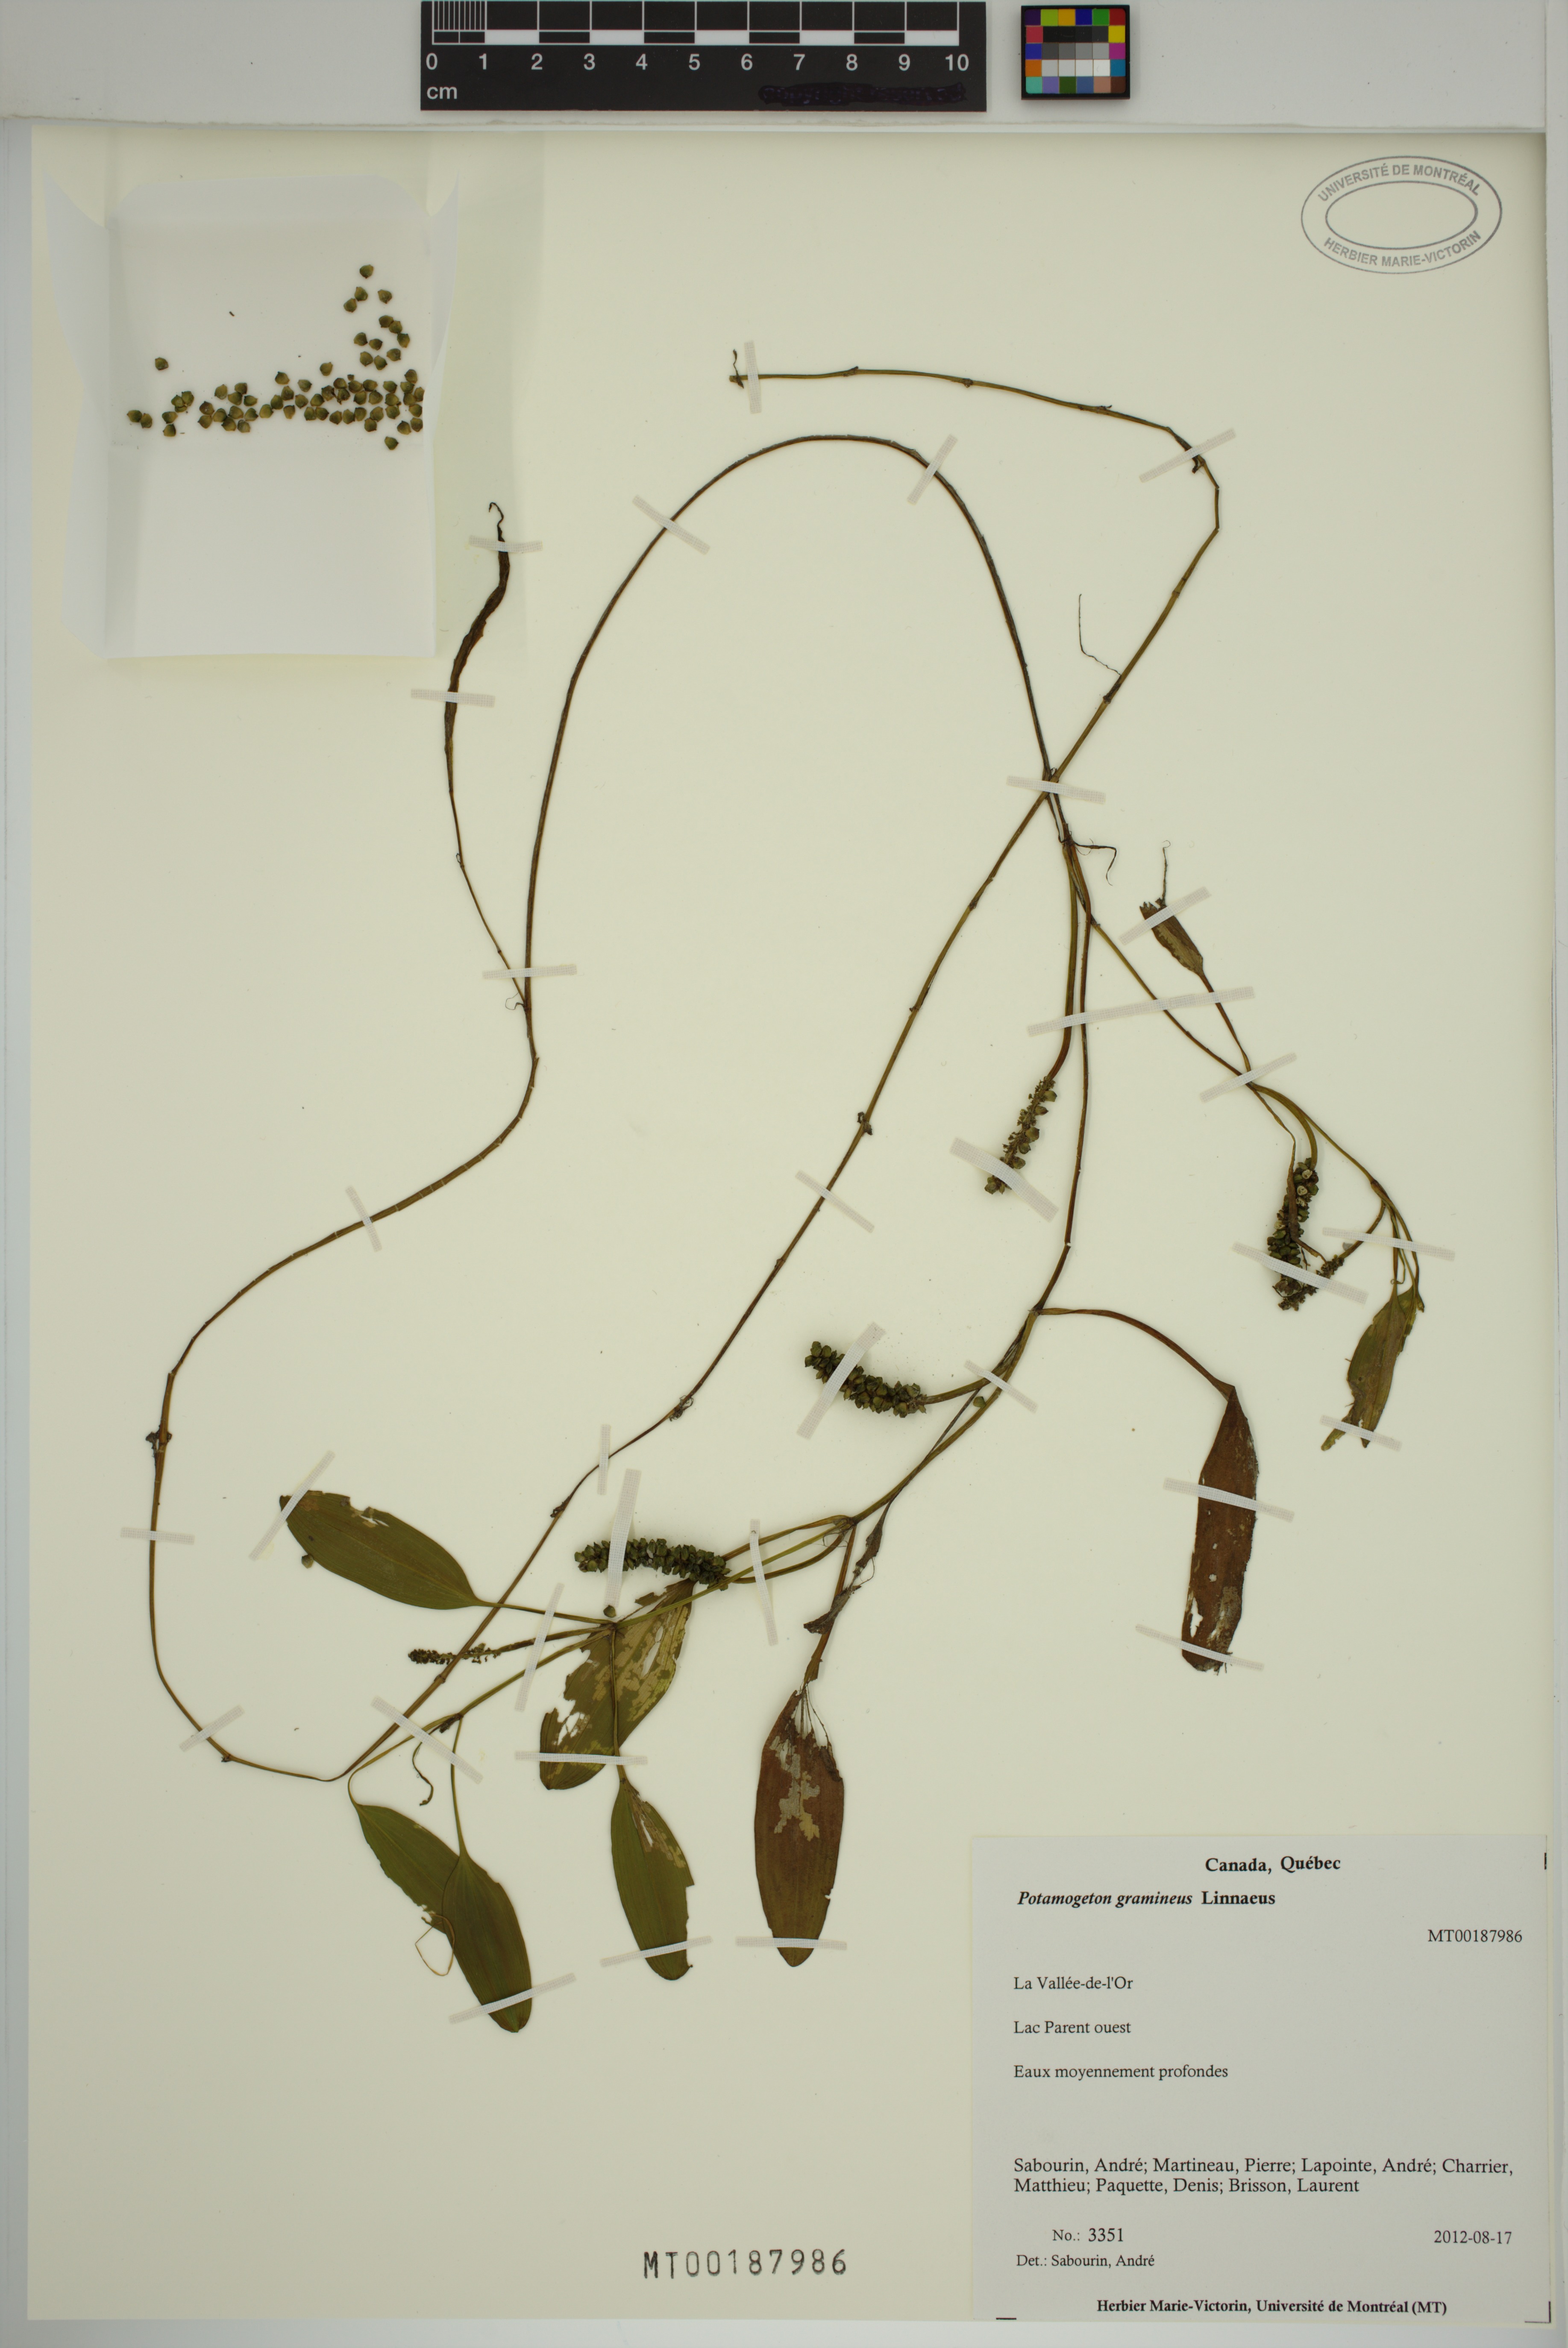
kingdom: Plantae
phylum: Tracheophyta
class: Liliopsida
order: Alismatales
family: Potamogetonaceae
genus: Potamogeton
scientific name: Potamogeton gramineus
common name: Various-leaved pondweed
